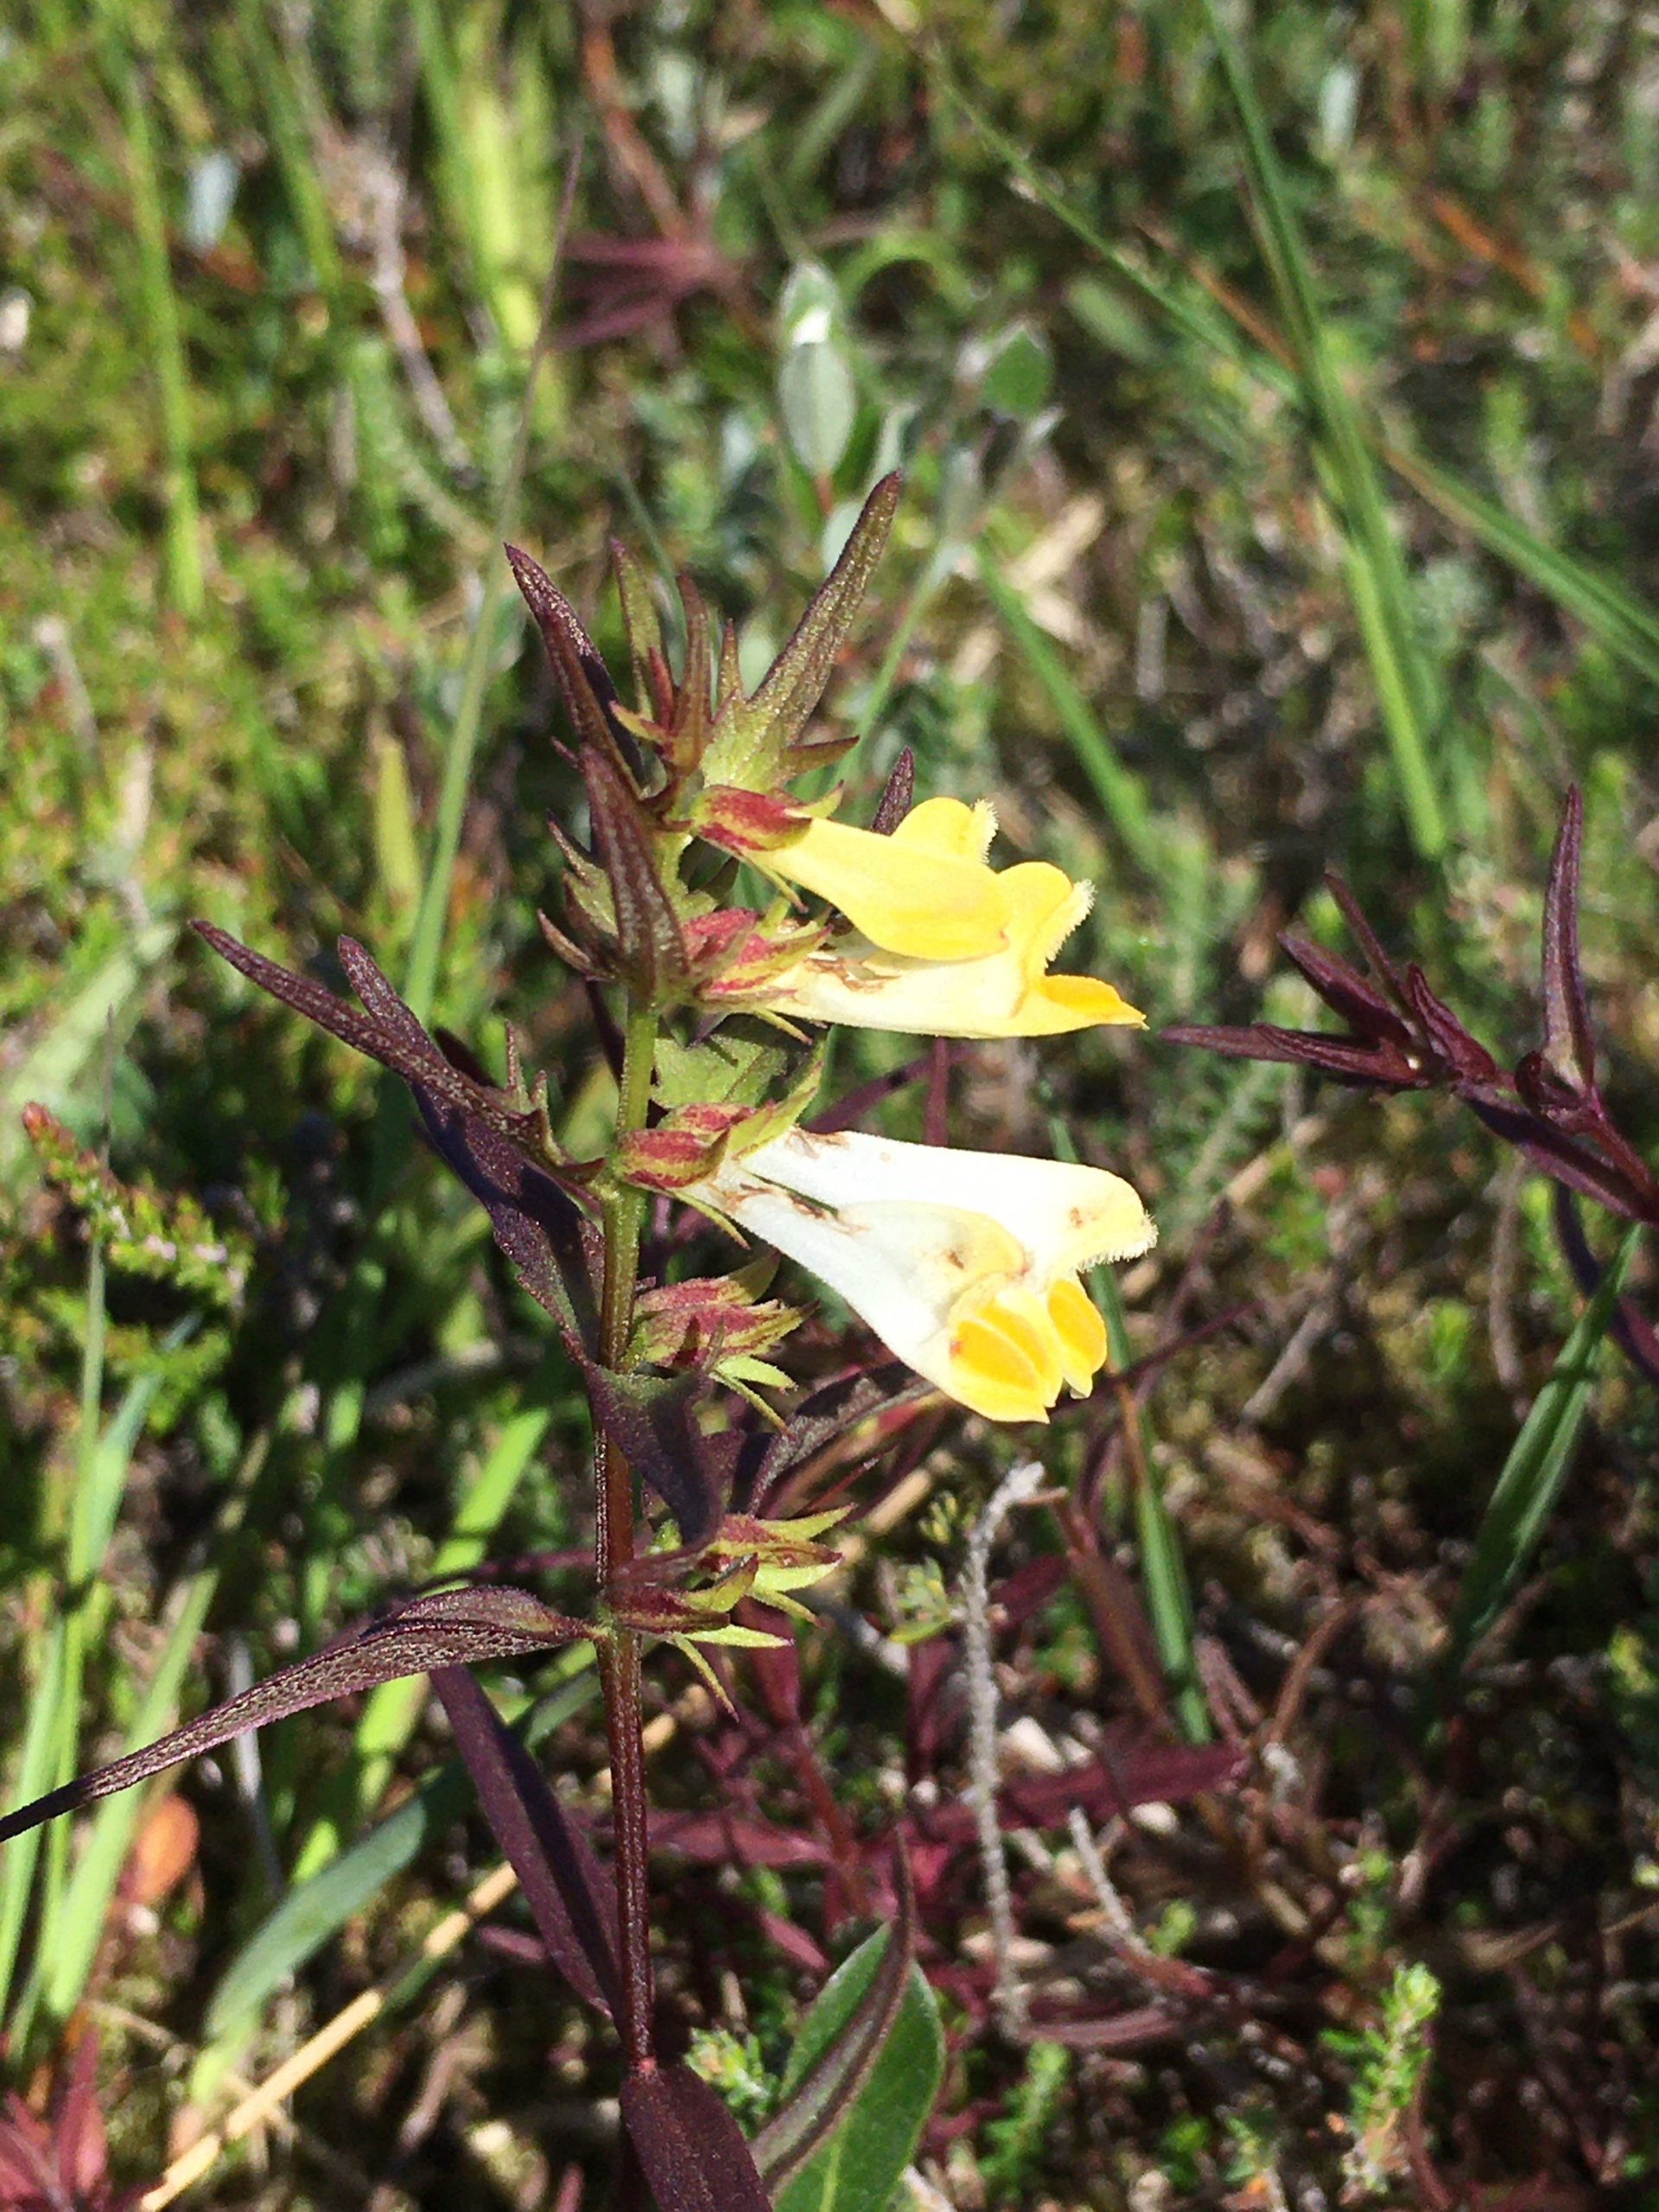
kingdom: Plantae
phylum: Tracheophyta
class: Magnoliopsida
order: Lamiales
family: Orobanchaceae
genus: Melampyrum
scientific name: Melampyrum pratense
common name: Almindelig kohvede
